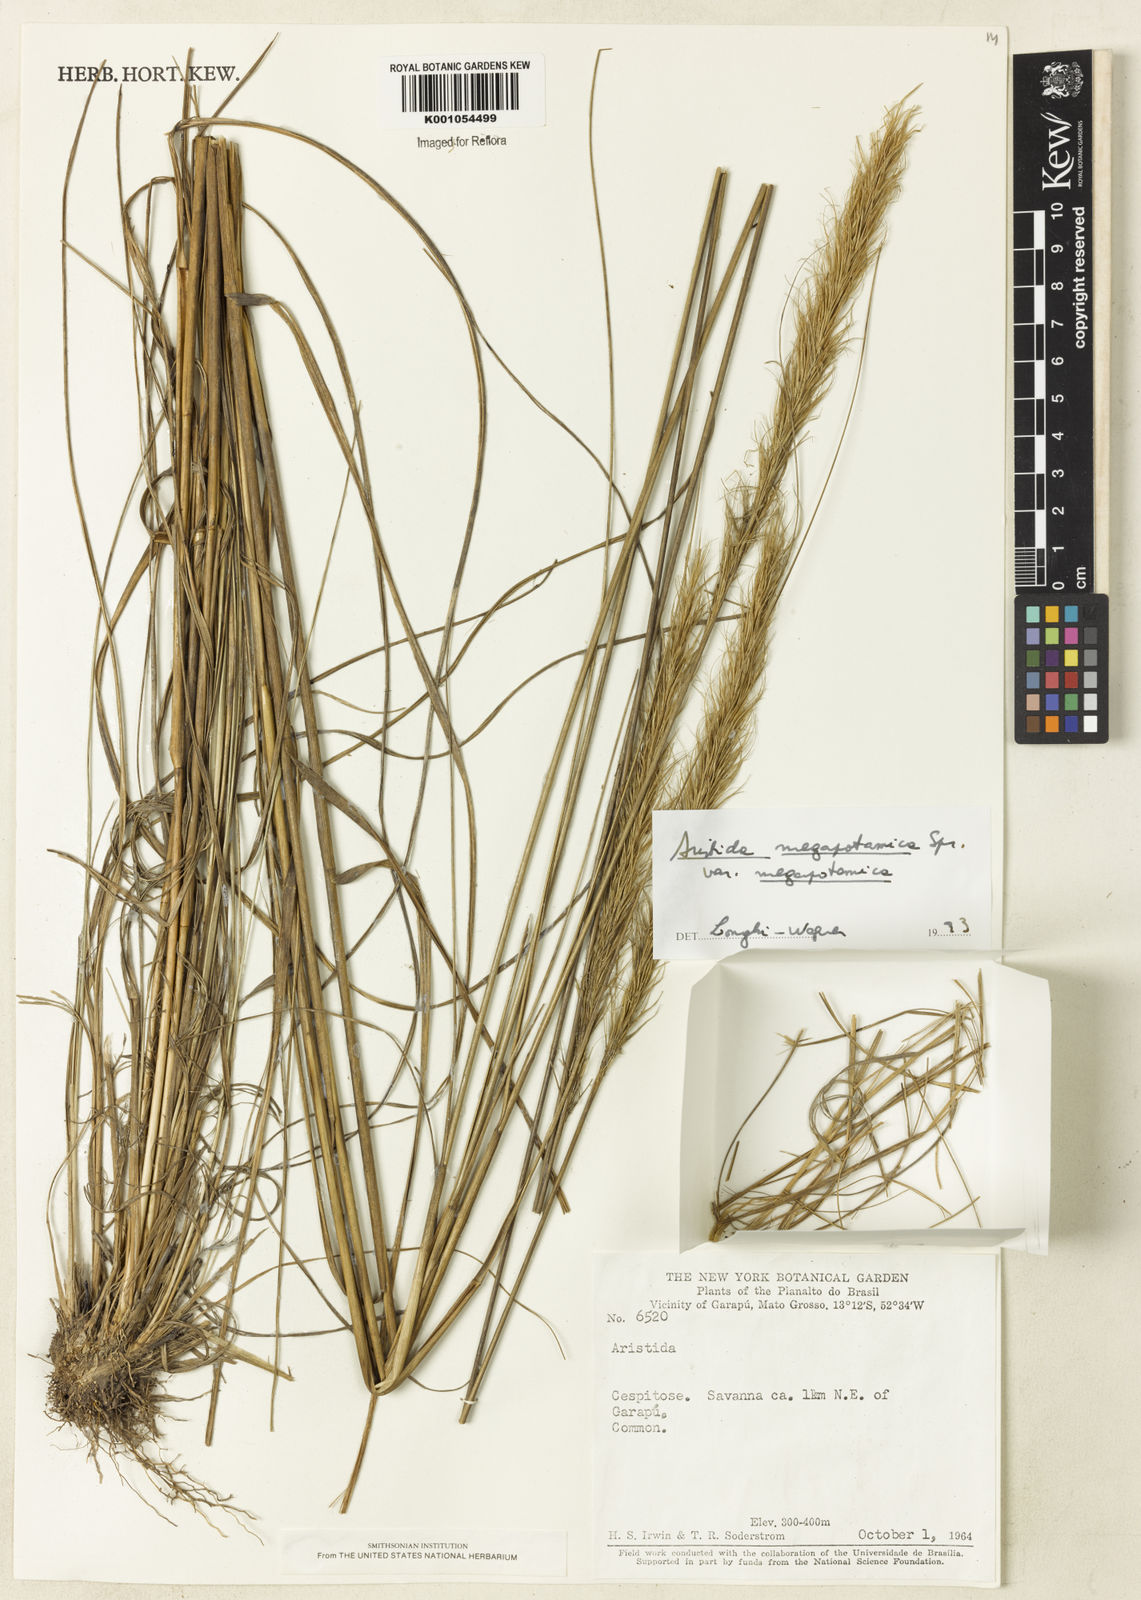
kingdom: Plantae
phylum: Tracheophyta
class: Liliopsida
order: Poales
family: Poaceae
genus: Aristida
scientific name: Aristida megapotamica
